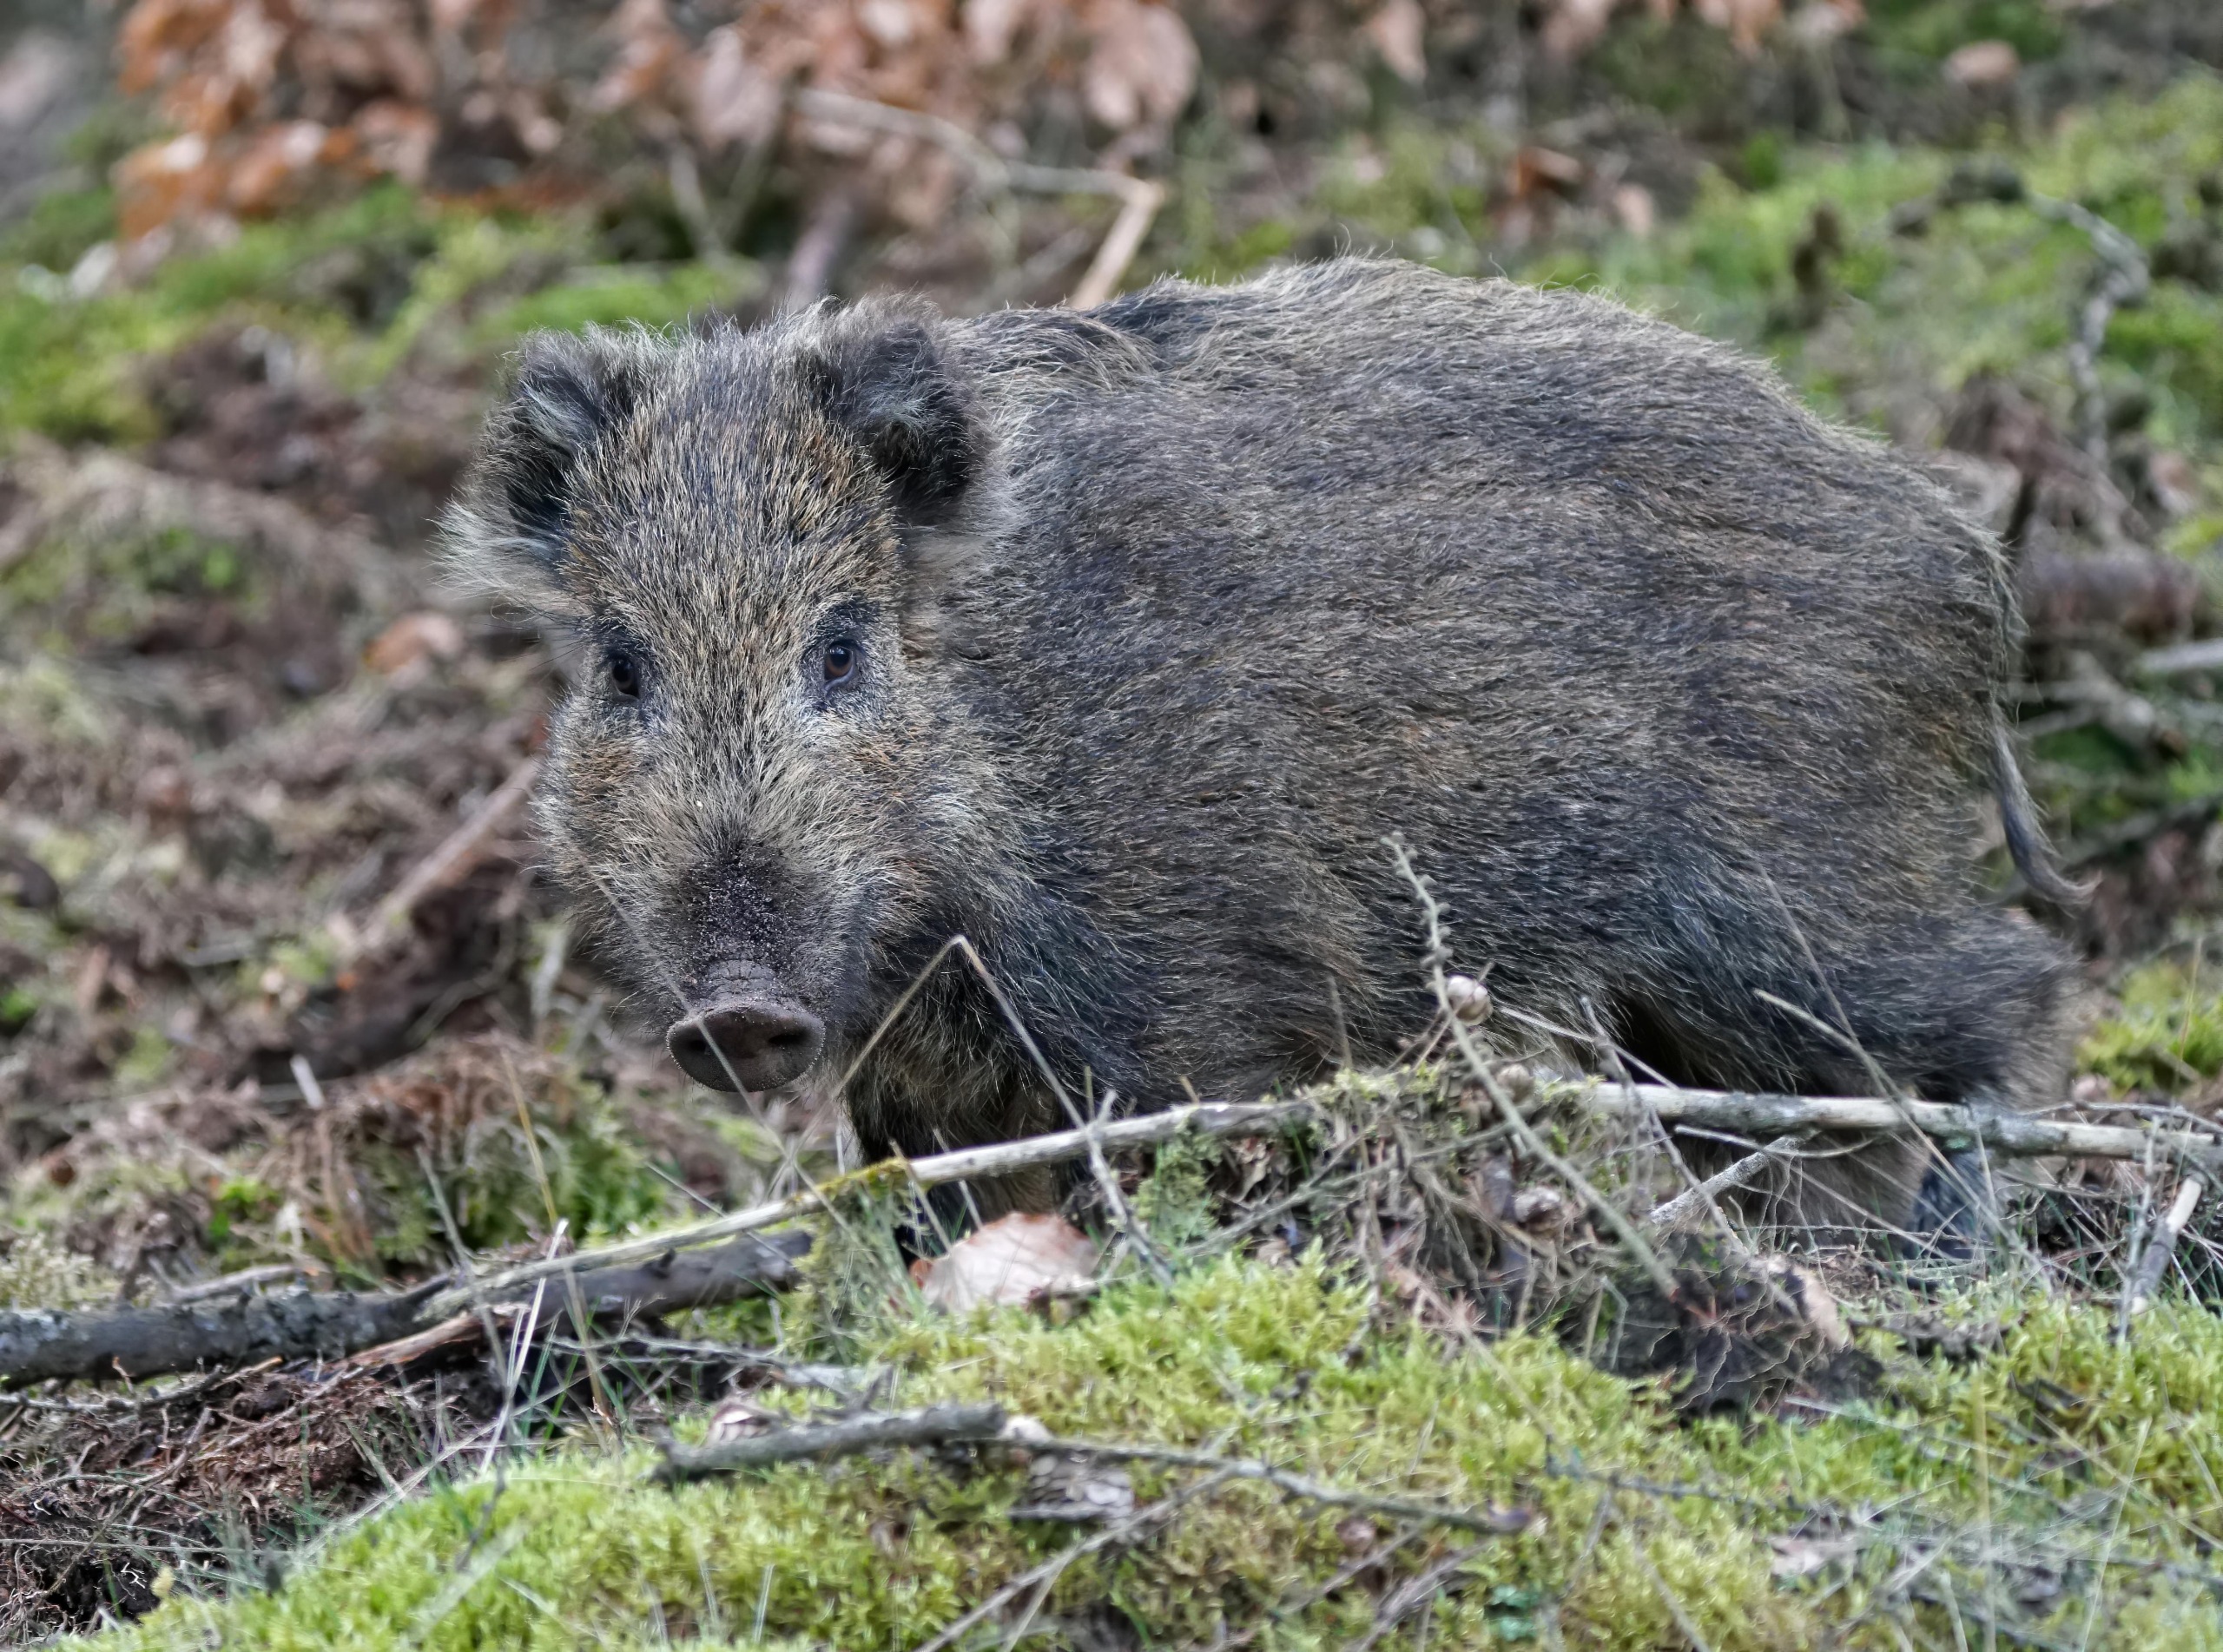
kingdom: Animalia
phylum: Chordata
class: Mammalia
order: Artiodactyla
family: Suidae
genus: Sus
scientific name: Sus scrofa
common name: Vildsvin
